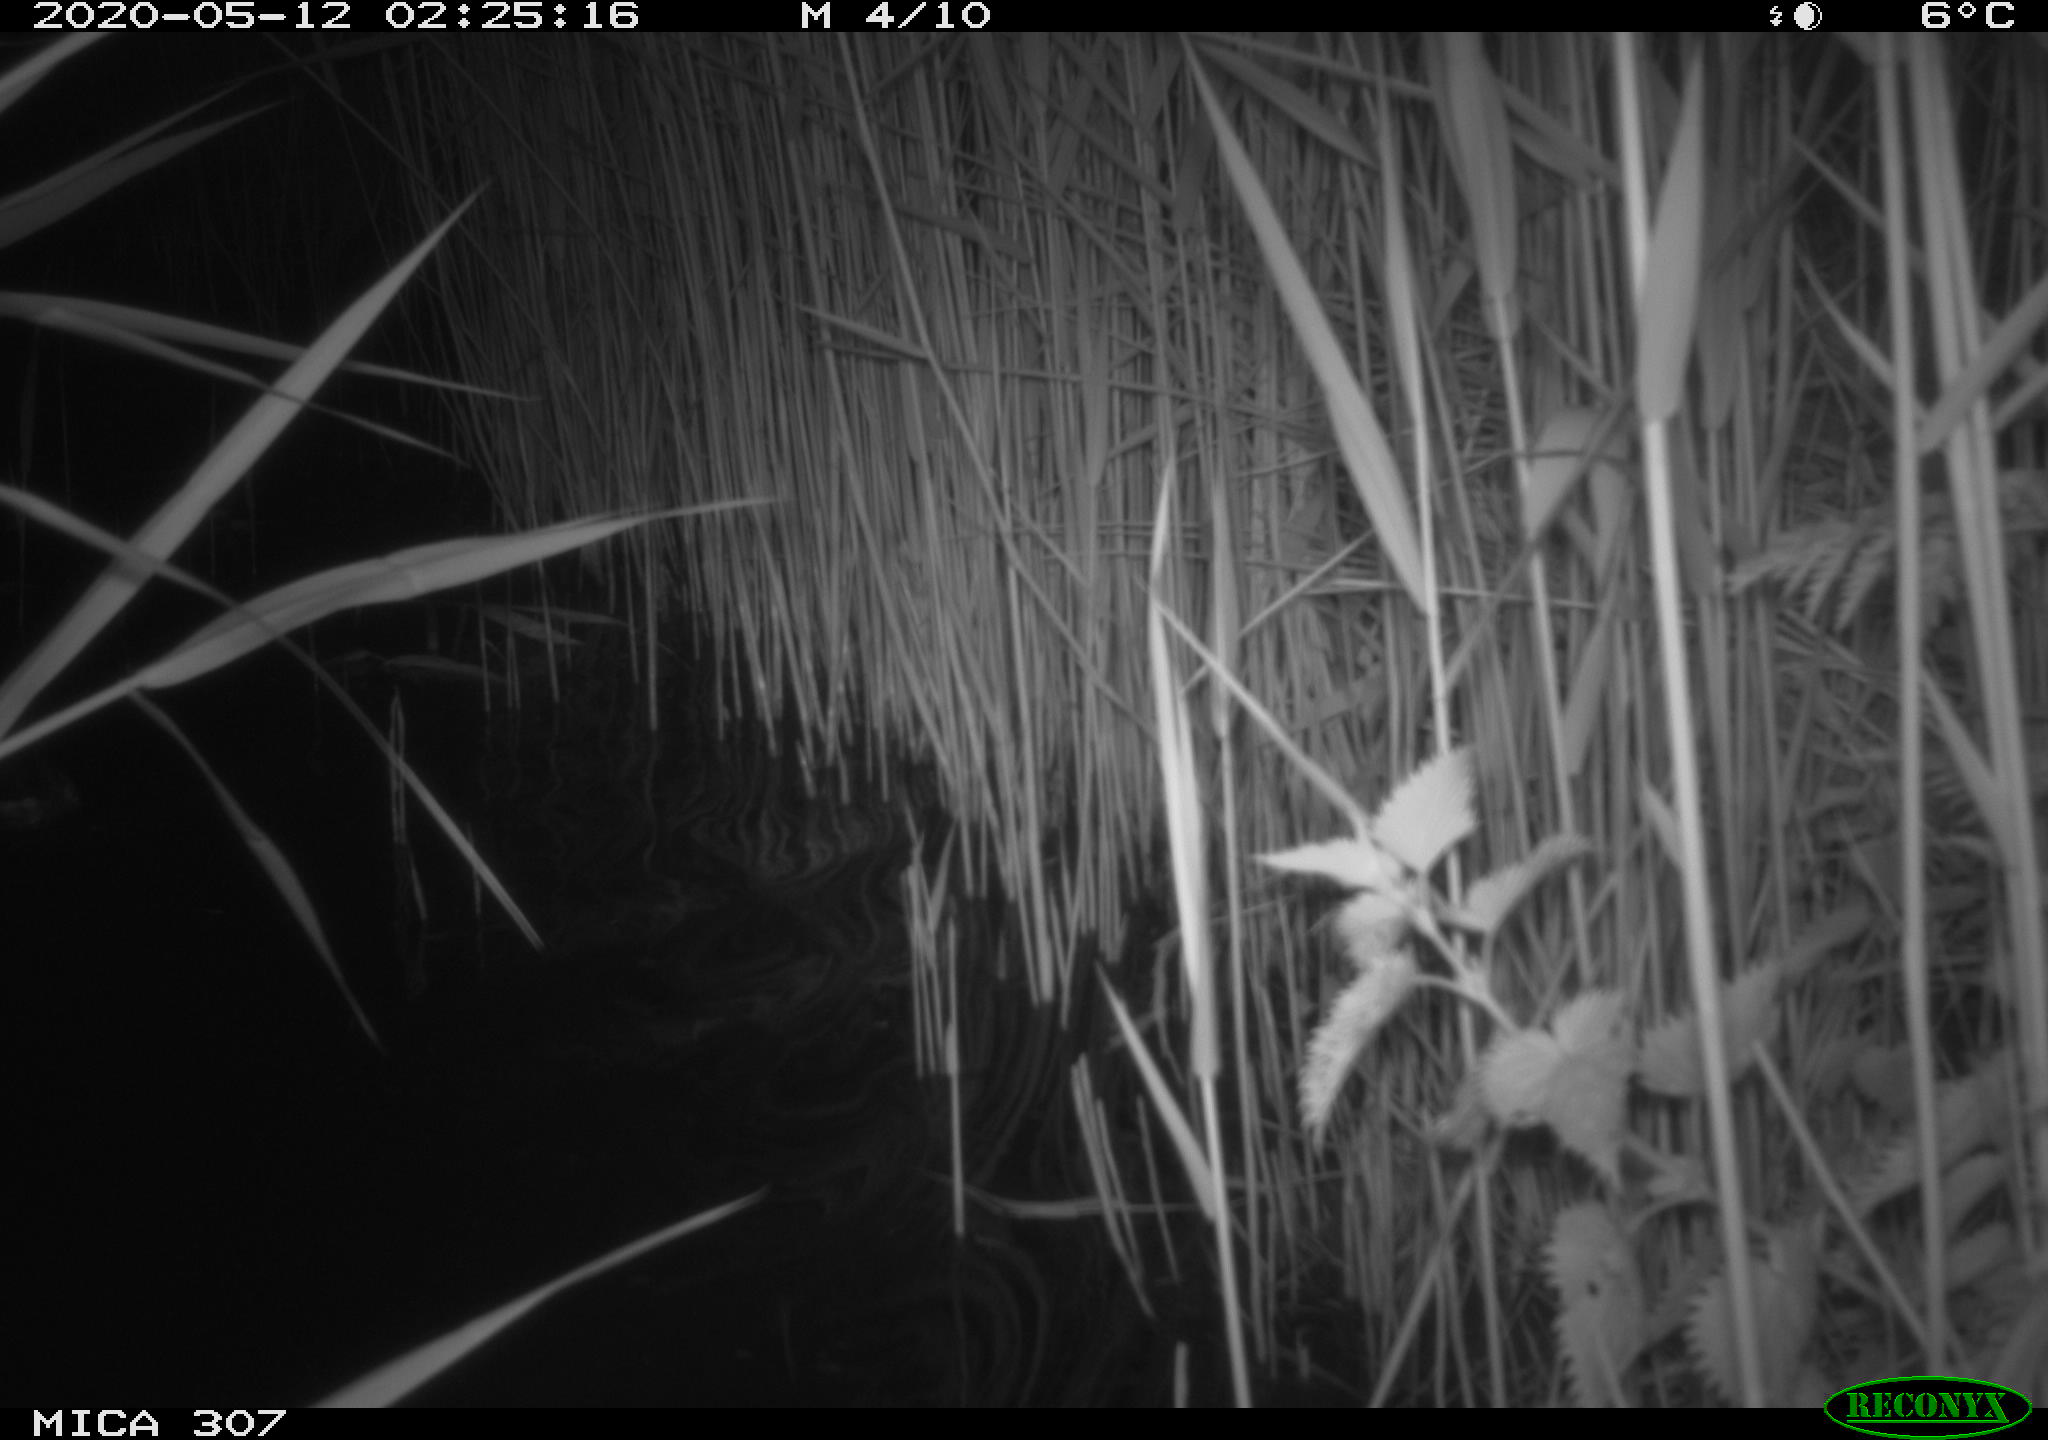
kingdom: Animalia
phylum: Chordata
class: Aves
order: Anseriformes
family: Anatidae
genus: Anas
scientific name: Anas platyrhynchos
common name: Mallard
